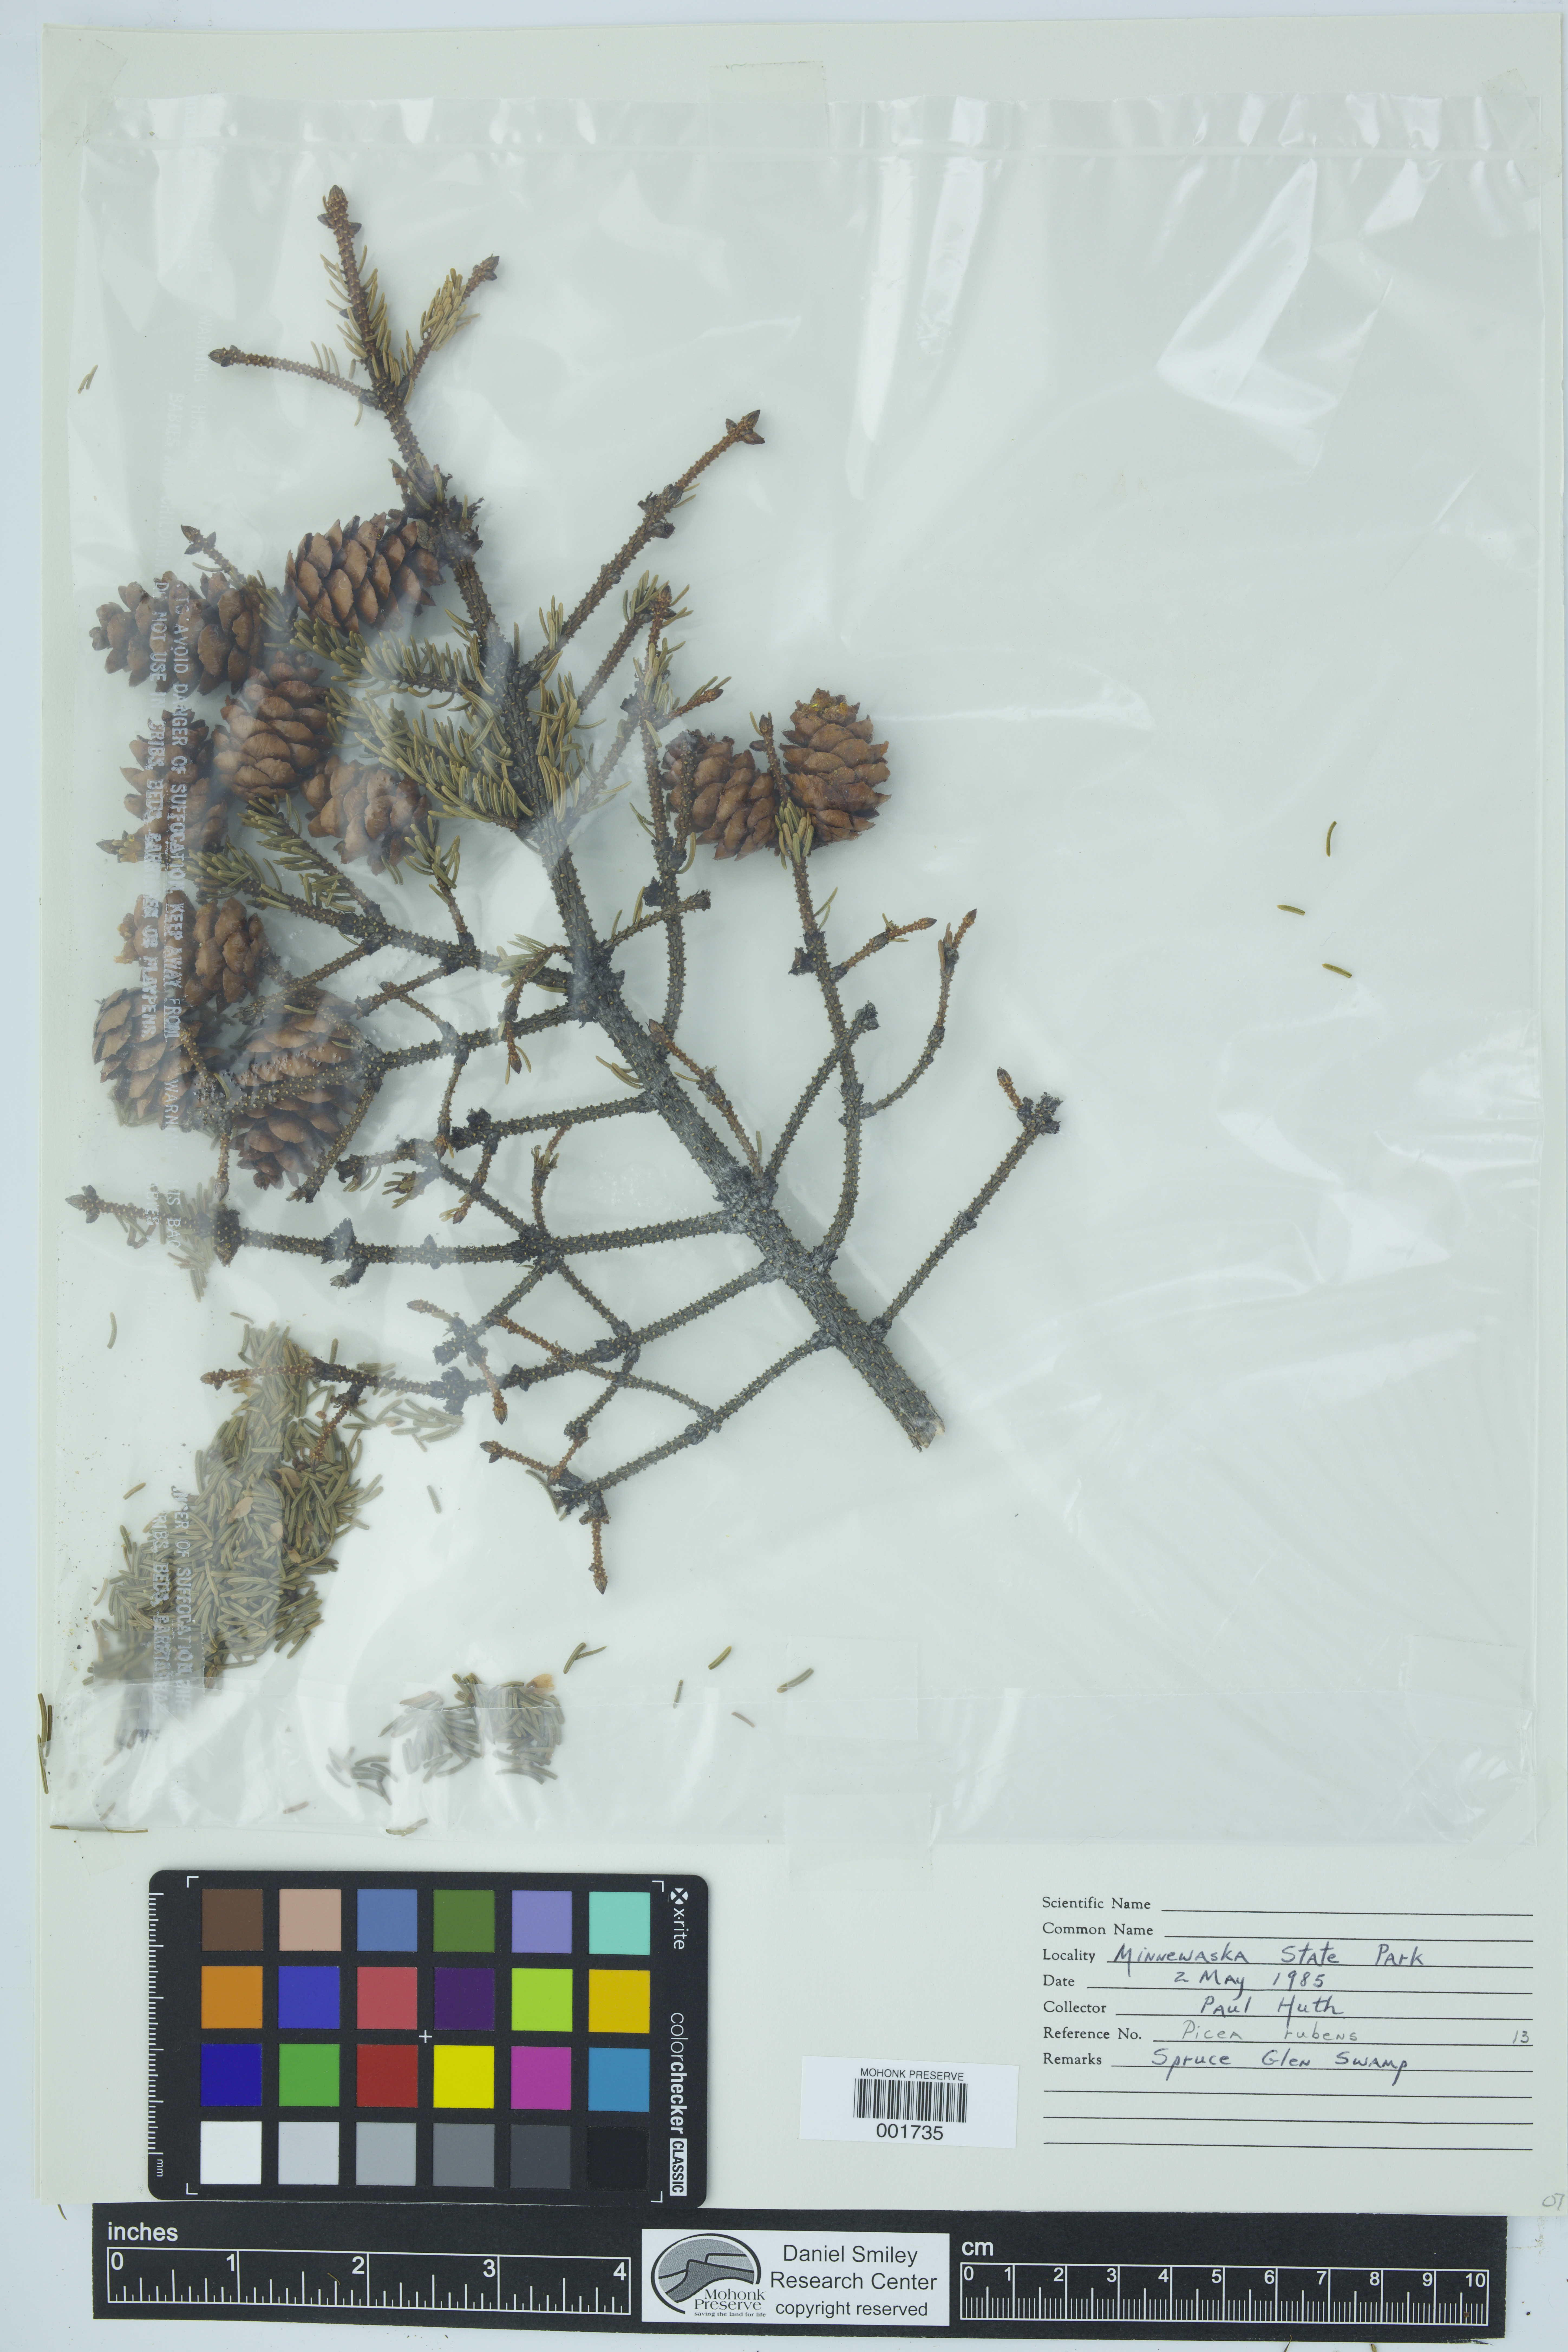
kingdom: Plantae
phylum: Tracheophyta
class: Pinopsida
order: Pinales
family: Pinaceae
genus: Picea
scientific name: Picea rubens
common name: Red spruce
